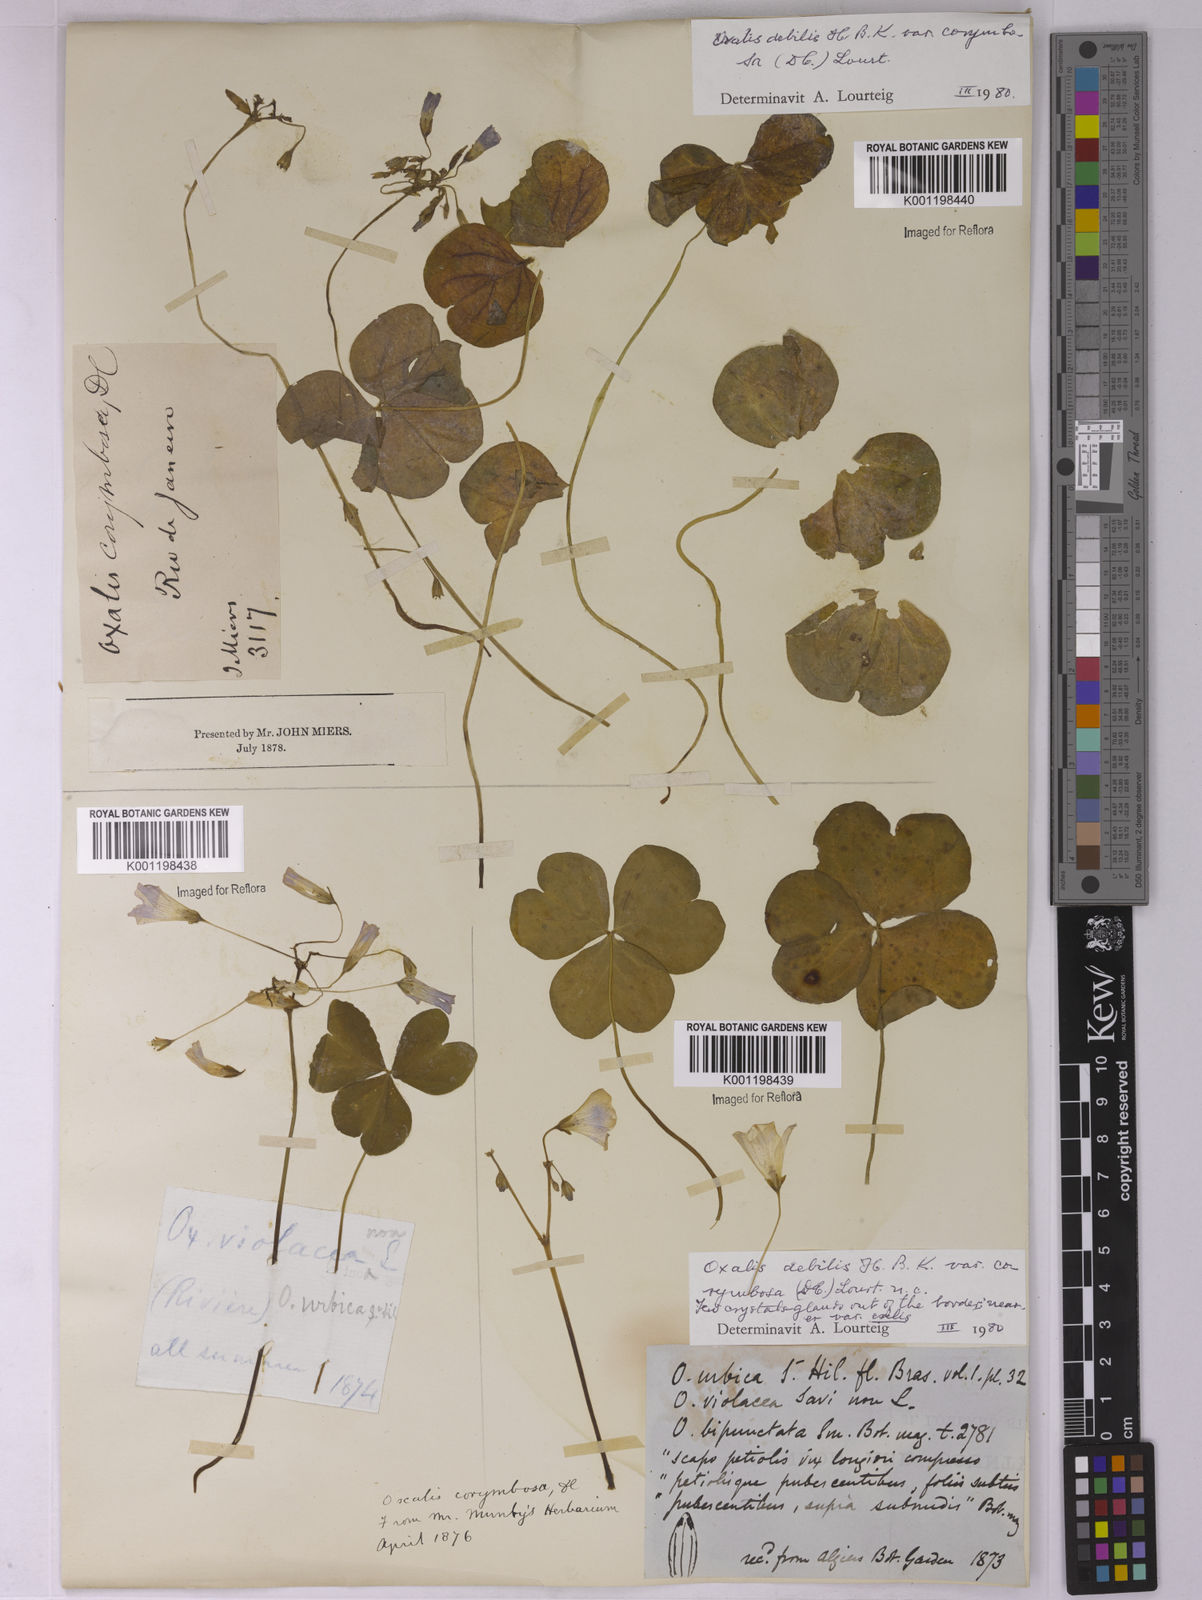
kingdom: Plantae
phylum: Tracheophyta
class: Magnoliopsida
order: Oxalidales
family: Oxalidaceae
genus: Oxalis
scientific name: Oxalis debilis
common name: Large-flowered pink-sorrel
